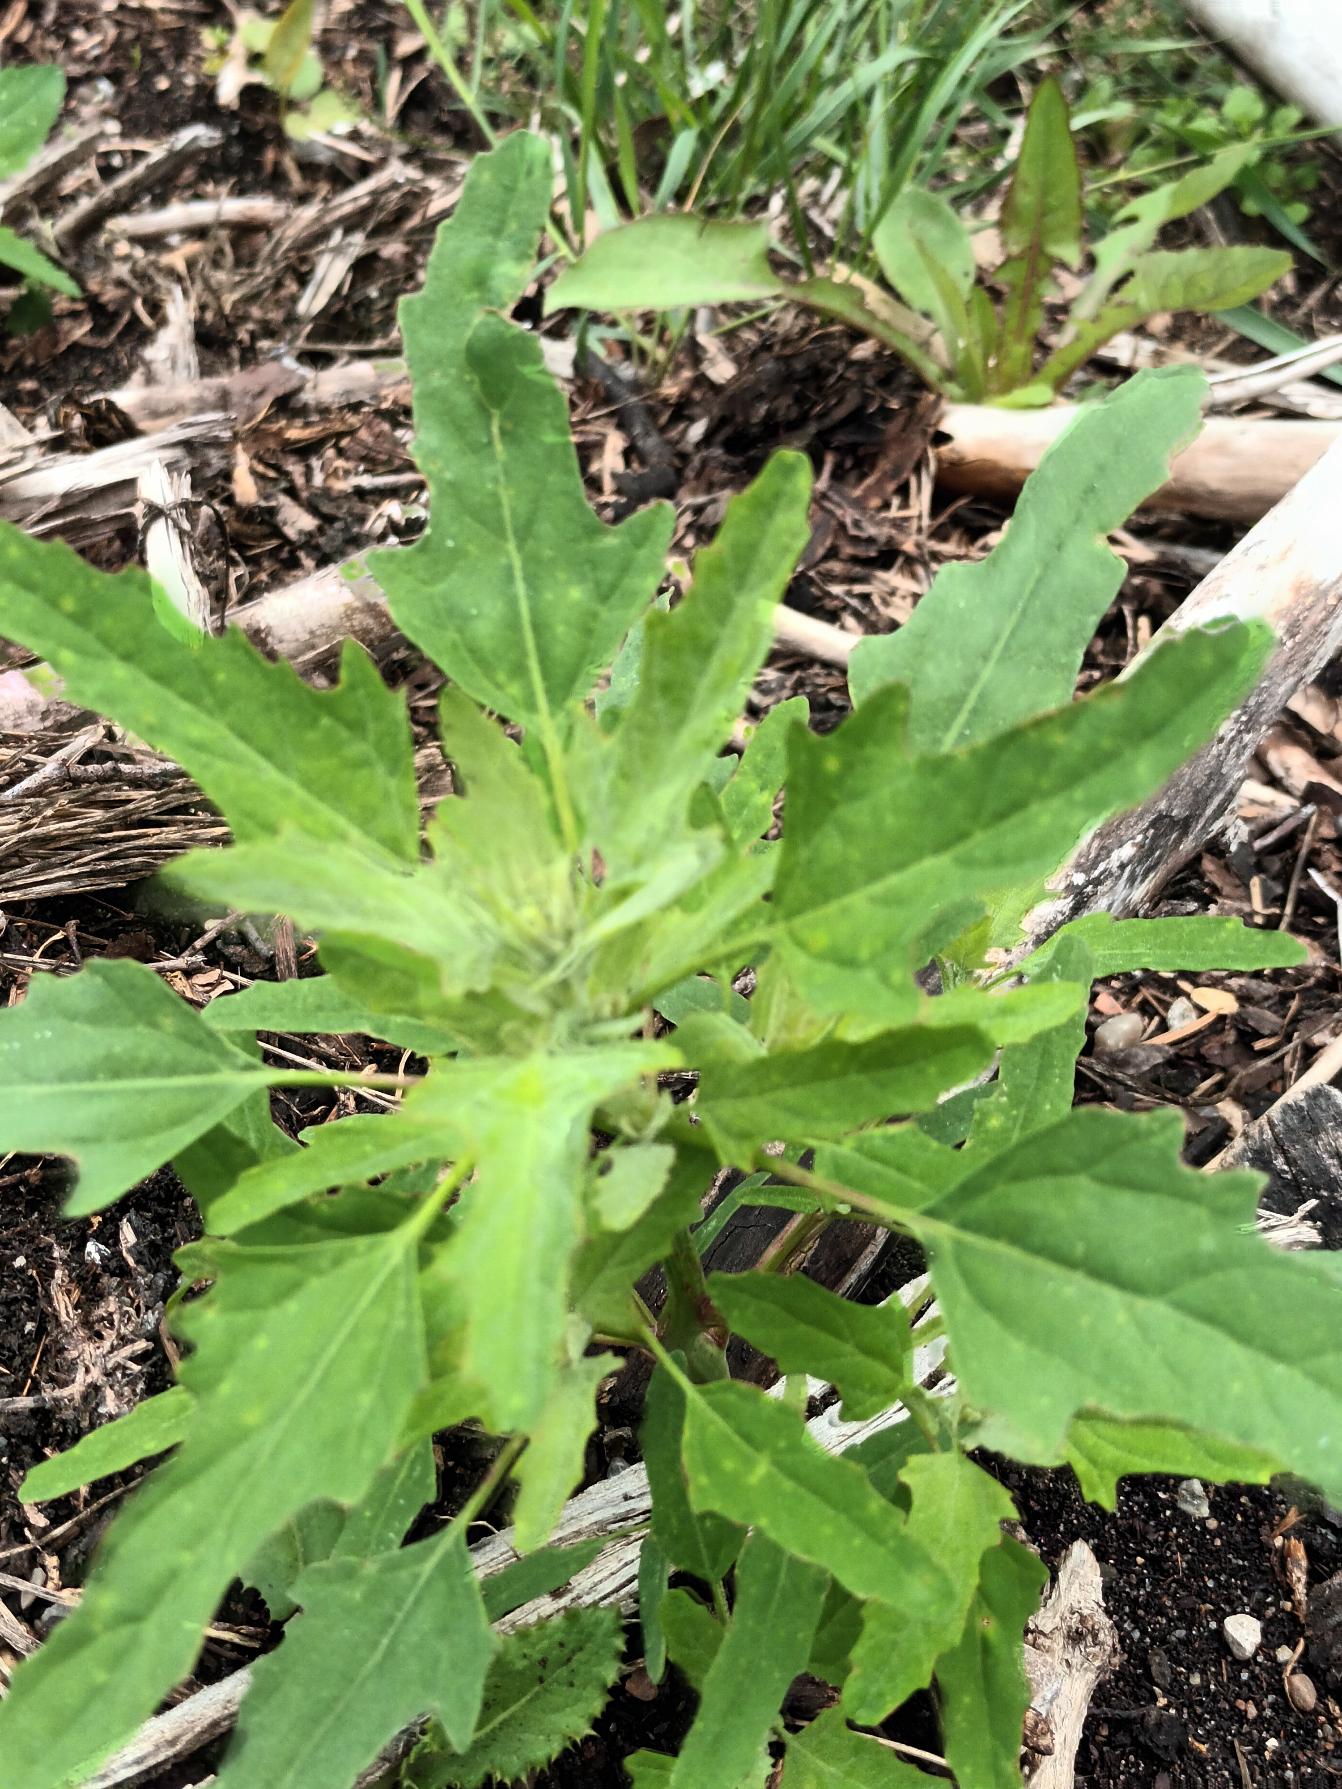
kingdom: Plantae
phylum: Tracheophyta
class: Magnoliopsida
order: Caryophyllales
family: Amaranthaceae
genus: Chenopodium
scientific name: Chenopodium ficifolium
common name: Figenbladet gåsefod
